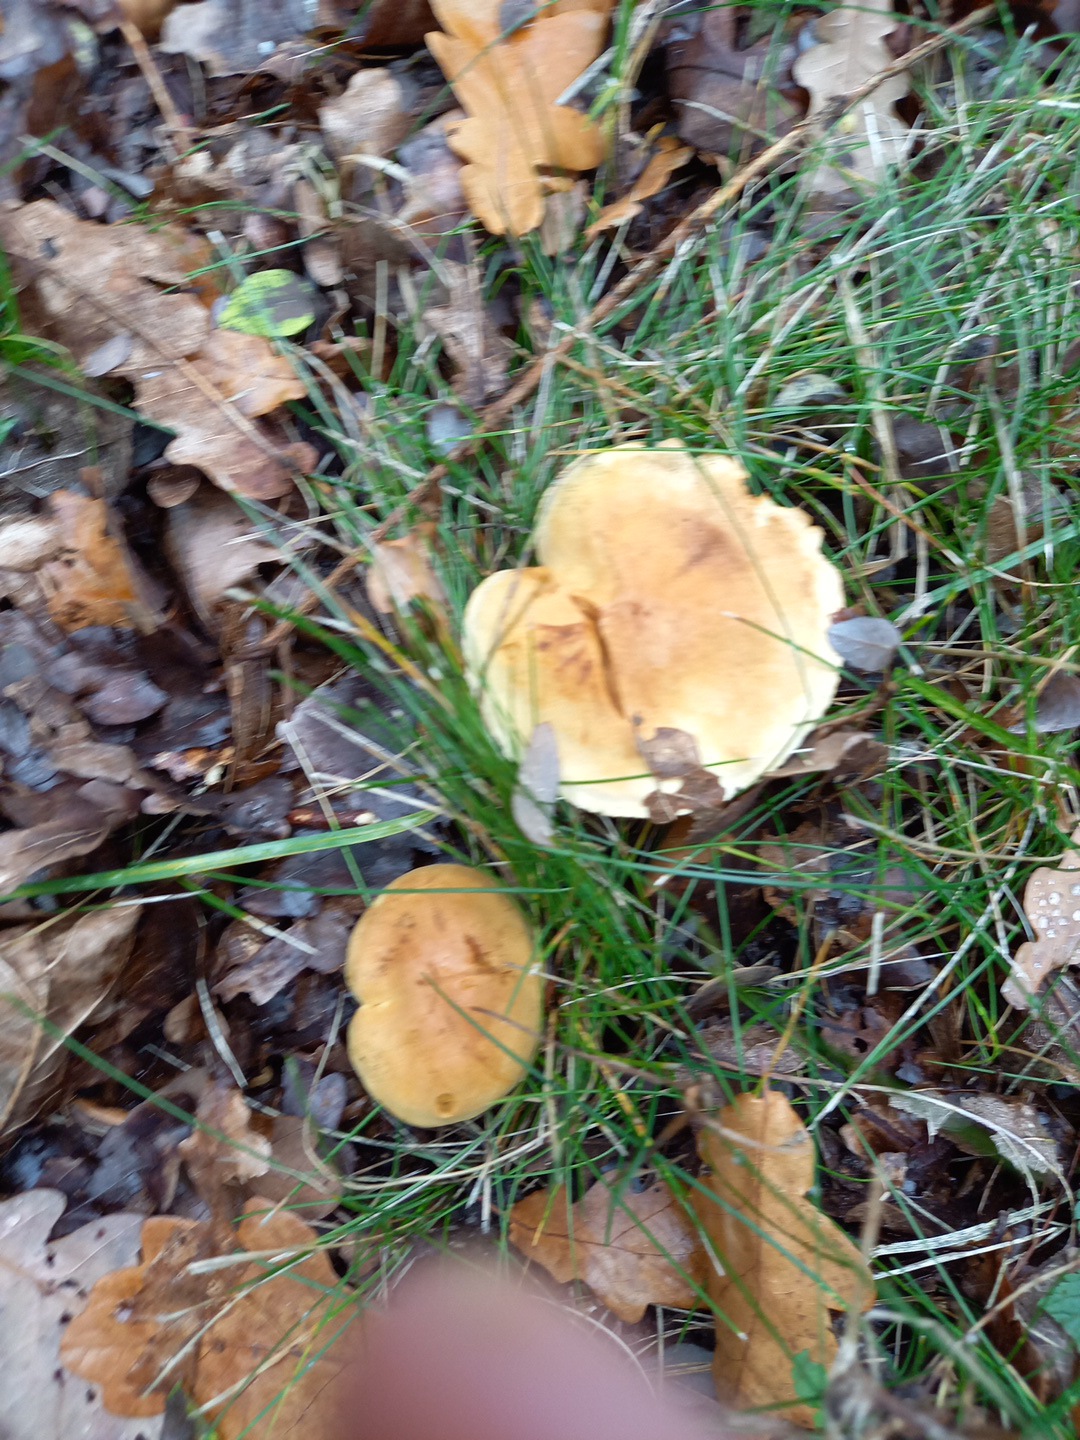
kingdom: Fungi
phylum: Basidiomycota
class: Agaricomycetes
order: Agaricales
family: Tricholomataceae
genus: Tricholoma
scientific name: Tricholoma sulphureum
